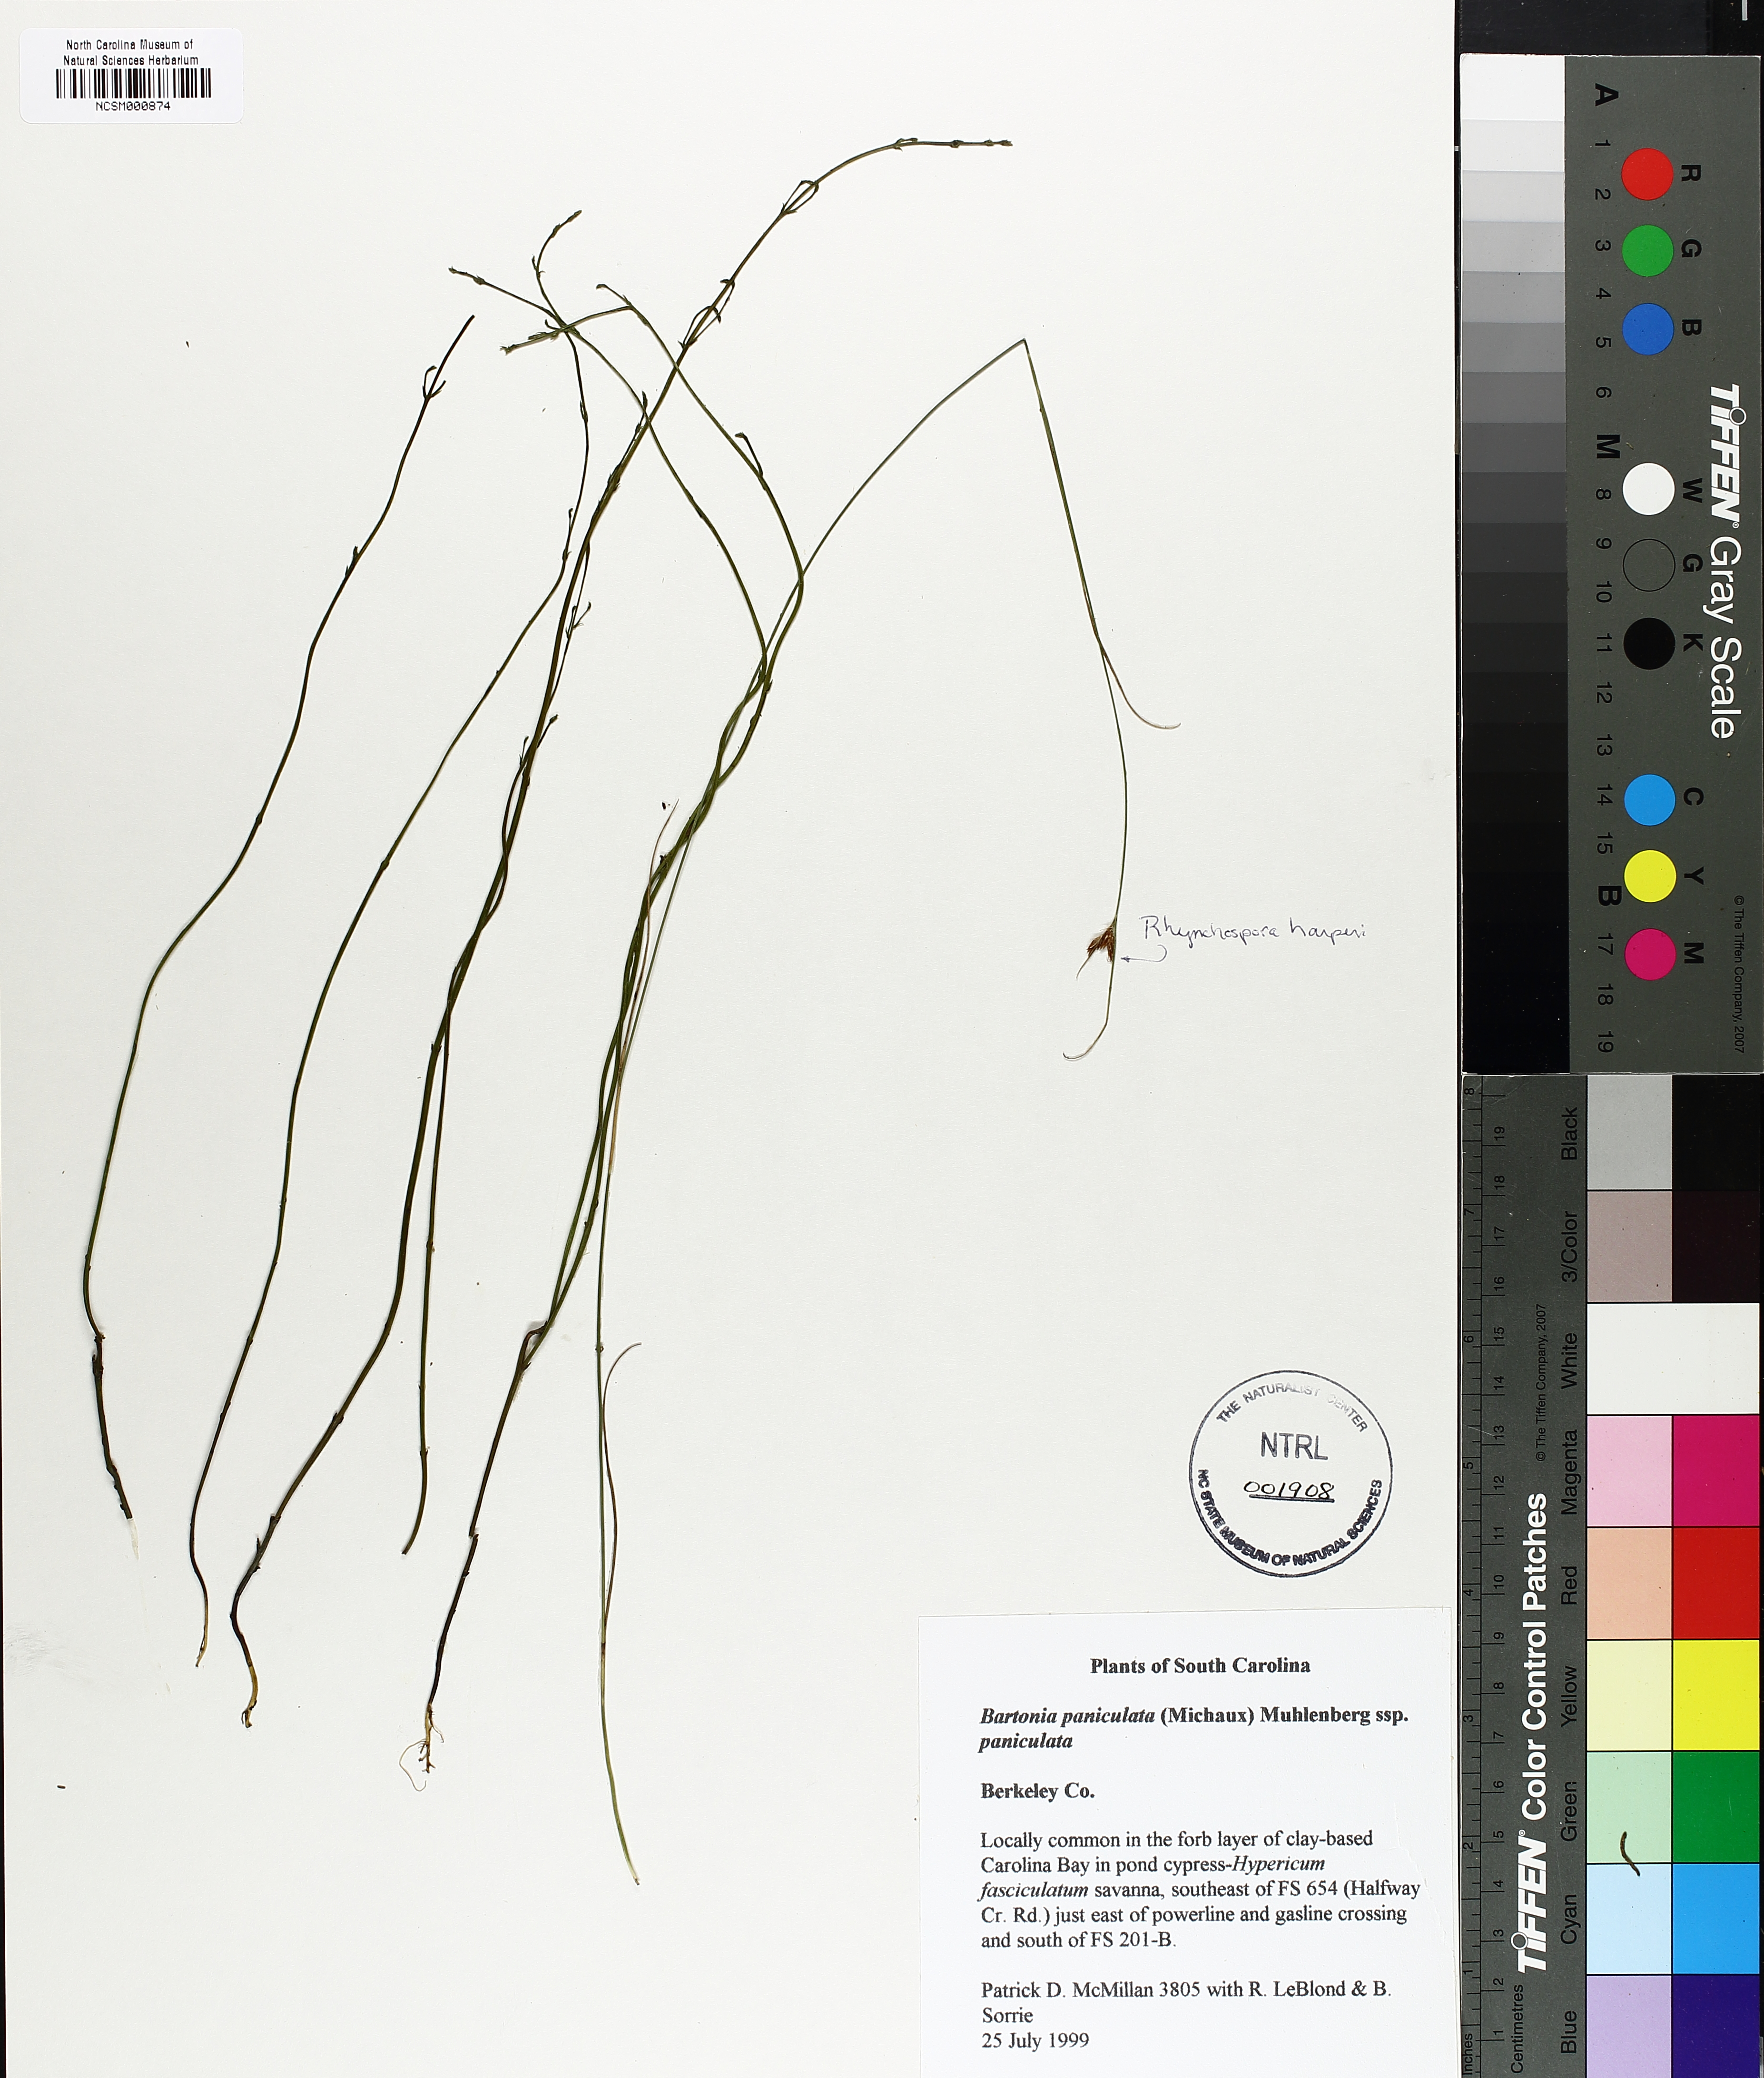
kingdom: Plantae
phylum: Tracheophyta
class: Magnoliopsida
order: Gentianales
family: Gentianaceae
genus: Bartonia
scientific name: Bartonia paniculata
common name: Branched bartonia
